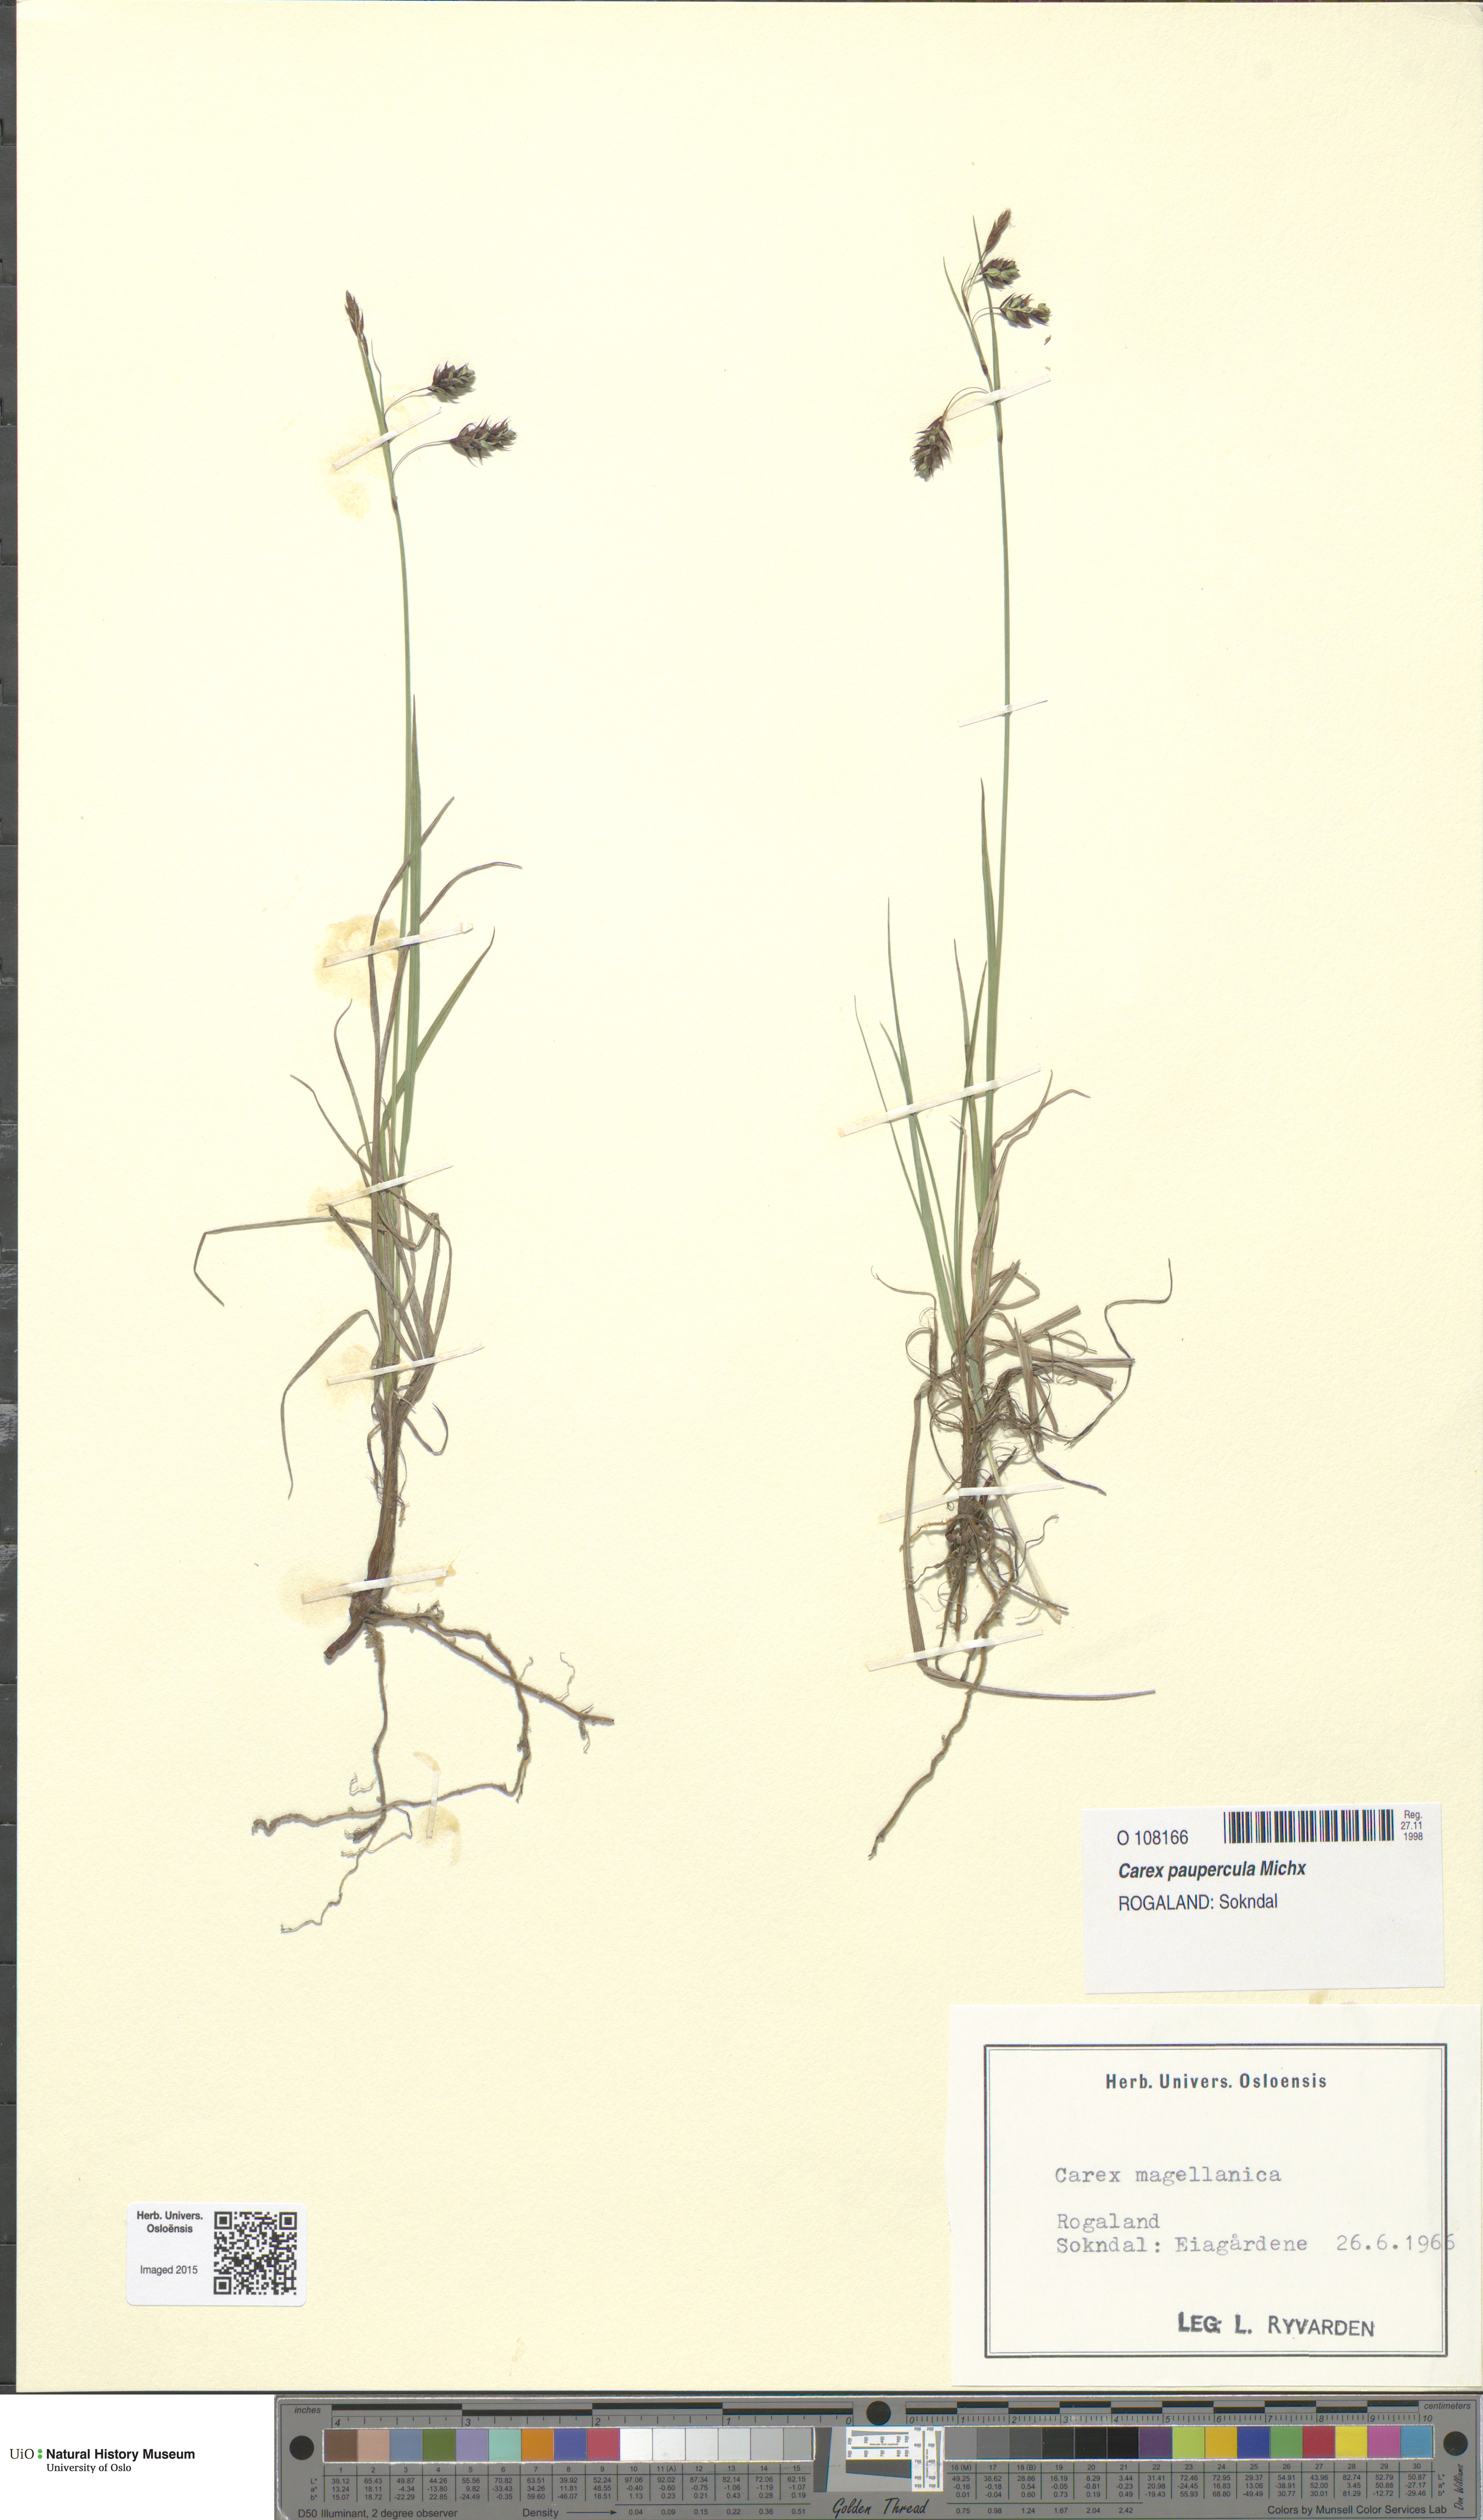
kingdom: Plantae
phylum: Tracheophyta
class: Liliopsida
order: Poales
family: Cyperaceae
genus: Carex
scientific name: Carex magellanica
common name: Bog sedge
